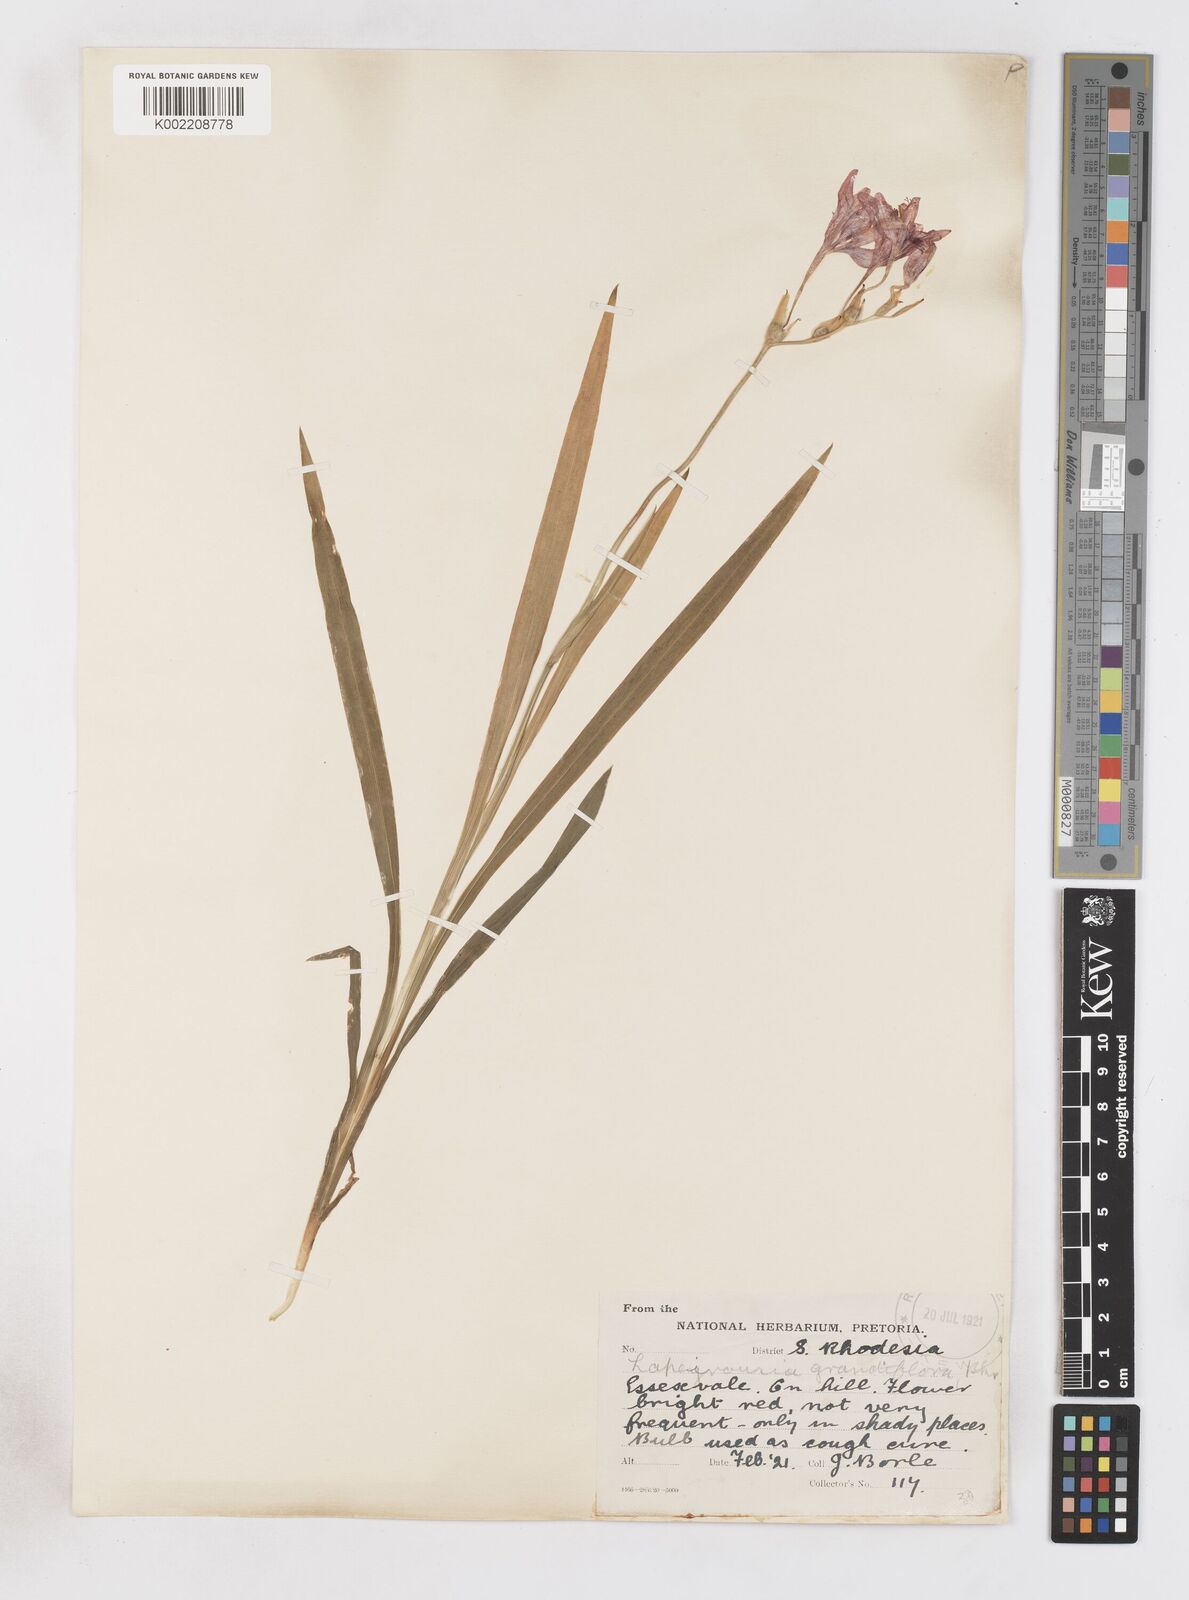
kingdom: Plantae
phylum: Tracheophyta
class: Liliopsida
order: Asparagales
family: Iridaceae
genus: Freesia
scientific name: Freesia grandiflora
